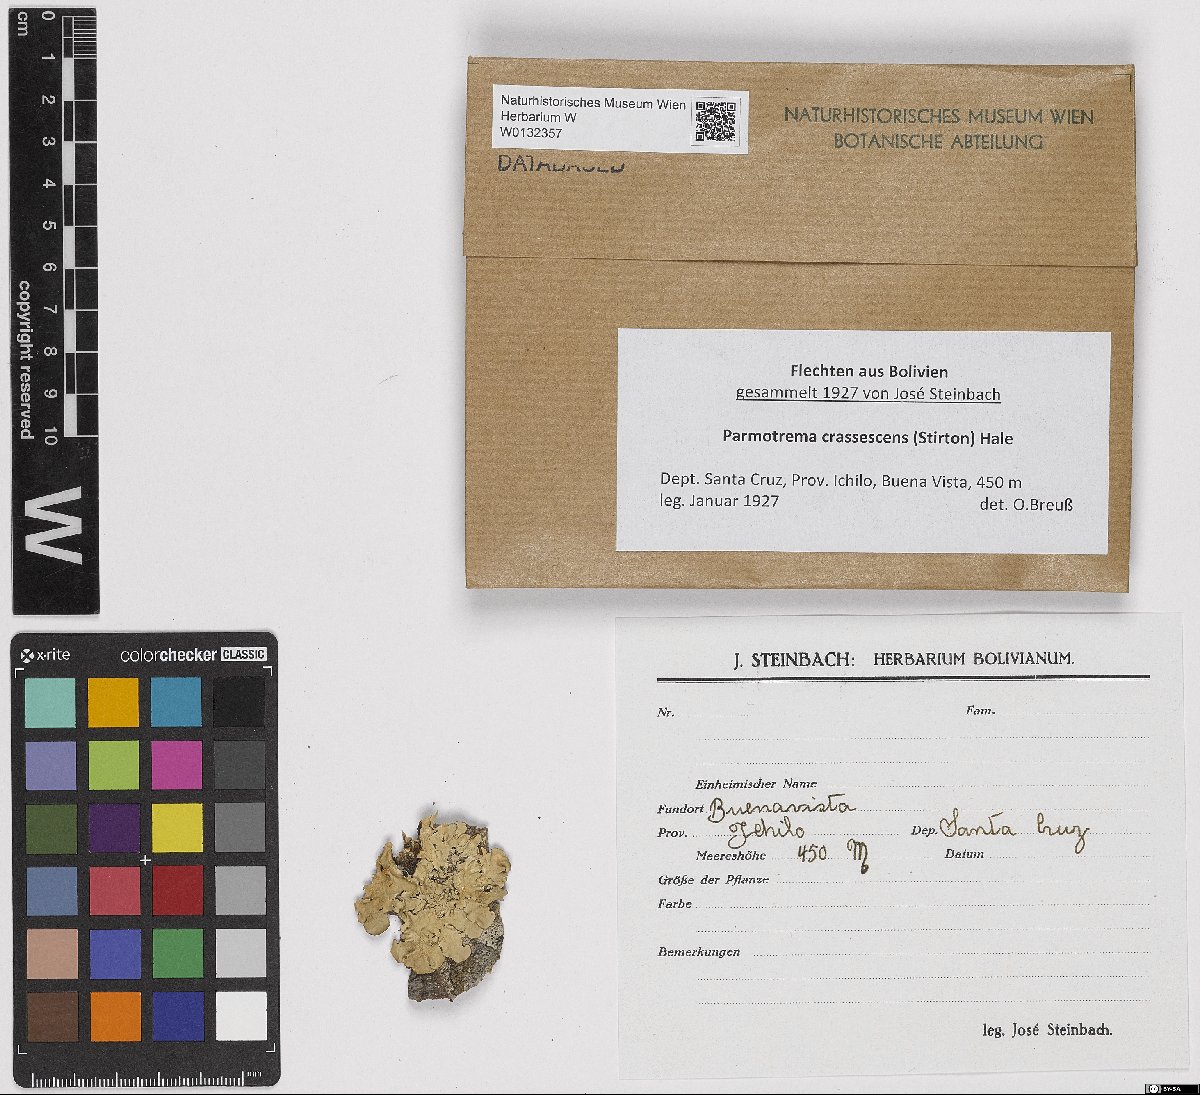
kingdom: Fungi
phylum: Ascomycota
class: Lecanoromycetes
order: Lecanorales
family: Parmeliaceae
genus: Parmotrema
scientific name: Parmotrema crassescens
